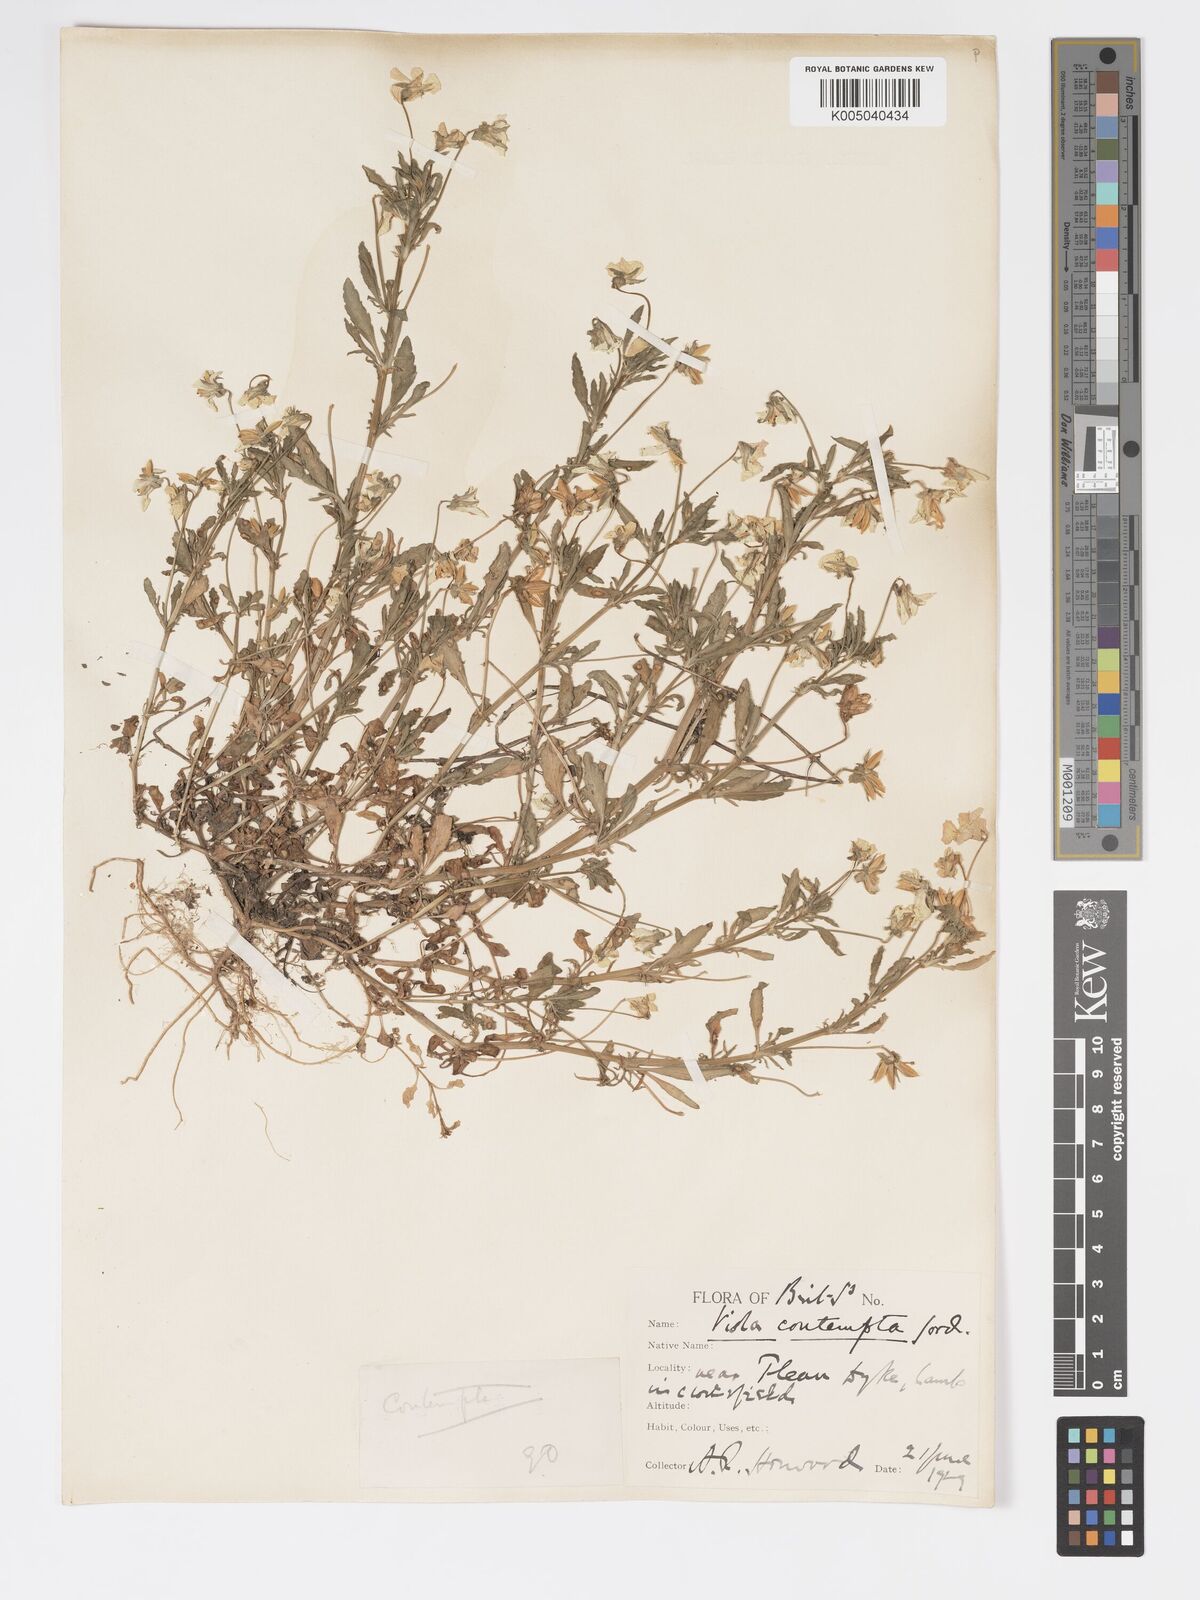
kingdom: Plantae
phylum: Tracheophyta
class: Magnoliopsida
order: Malpighiales
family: Violaceae
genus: Viola
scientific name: Viola arvensis
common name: Field pansy
